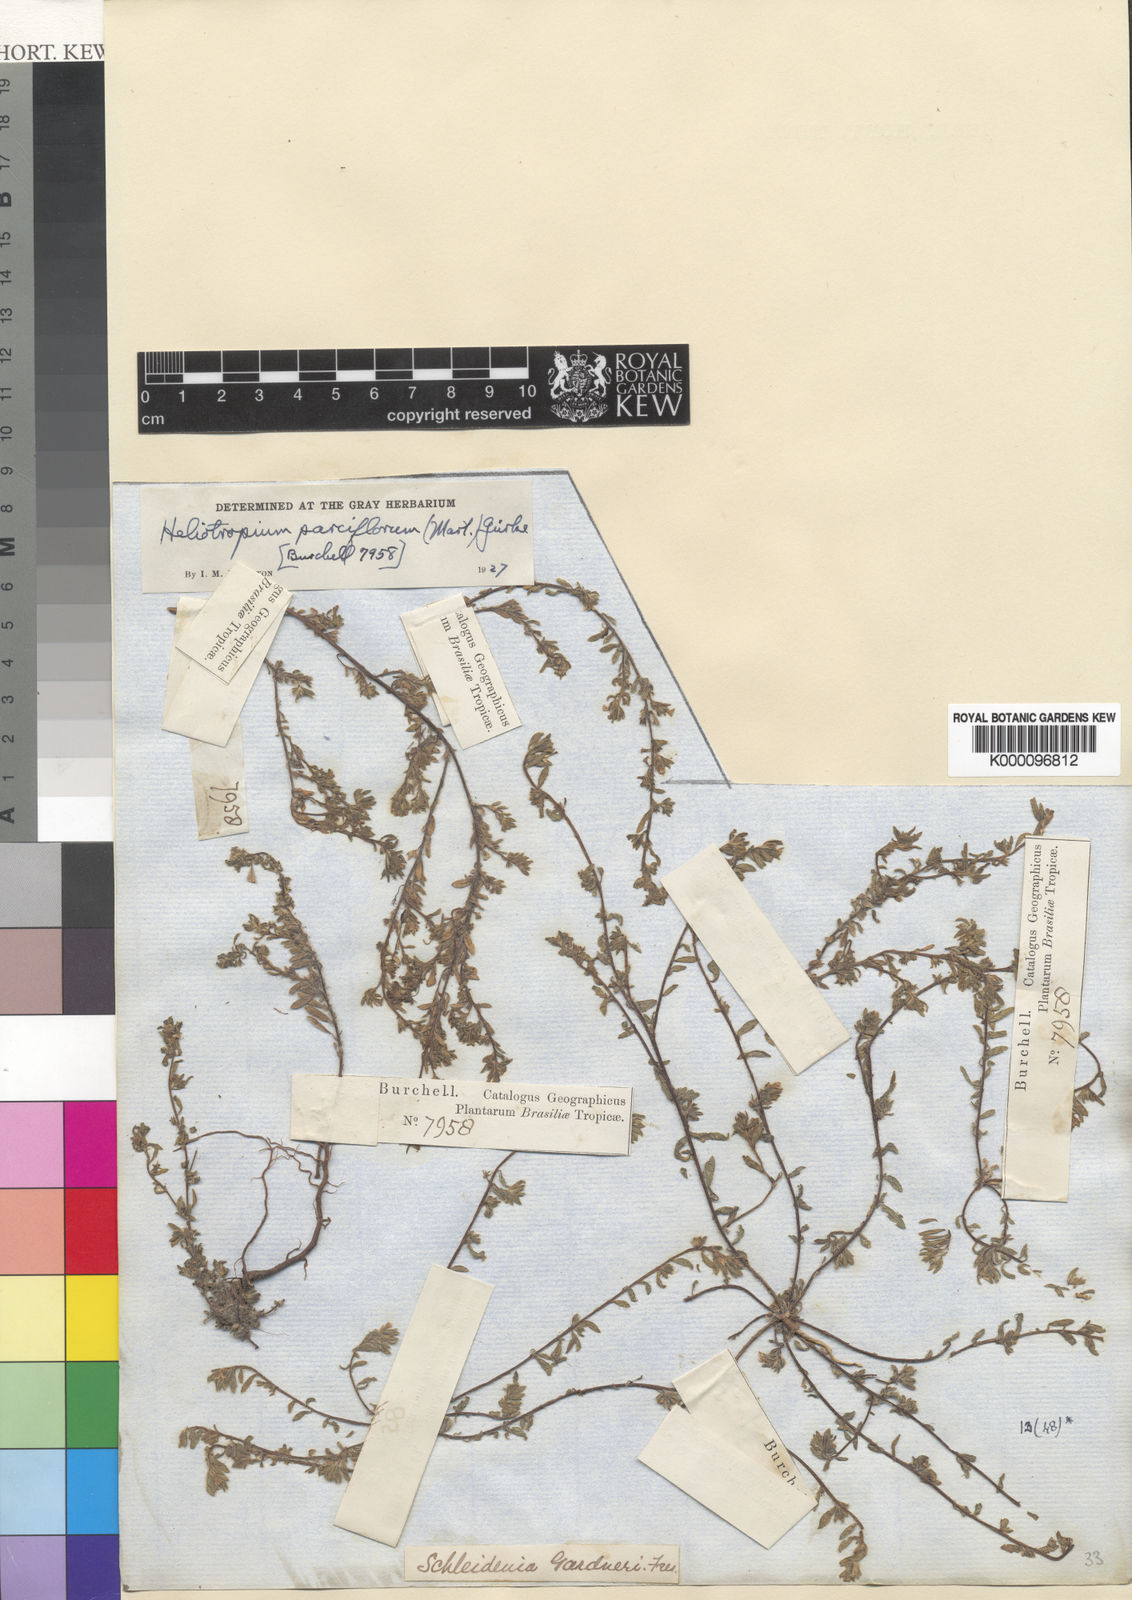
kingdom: Plantae
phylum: Tracheophyta
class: Magnoliopsida
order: Boraginales
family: Heliotropiaceae
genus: Euploca
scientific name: Euploca antillana
